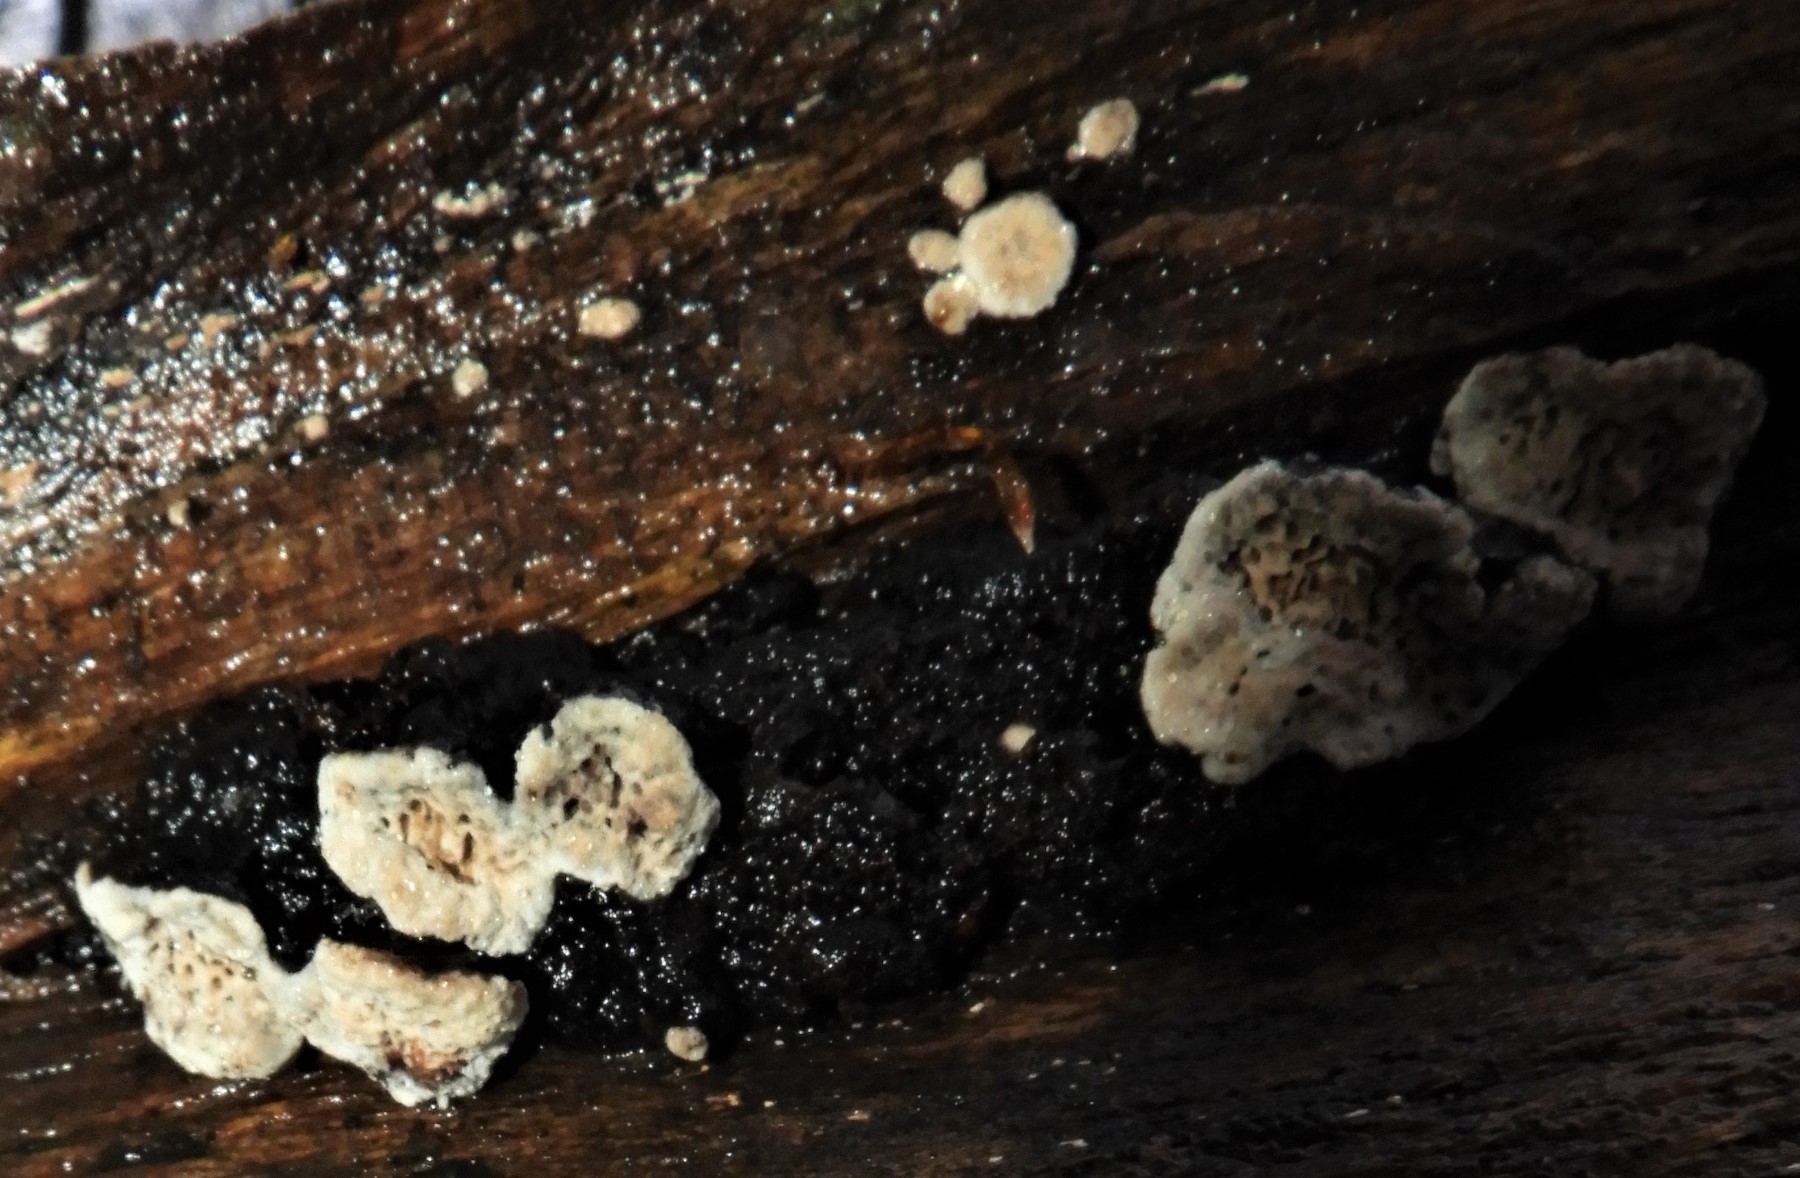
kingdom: Fungi
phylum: Basidiomycota
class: Agaricomycetes
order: Polyporales
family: Polyporaceae
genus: Podofomes
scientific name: Podofomes mollis
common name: blød begporesvamp
